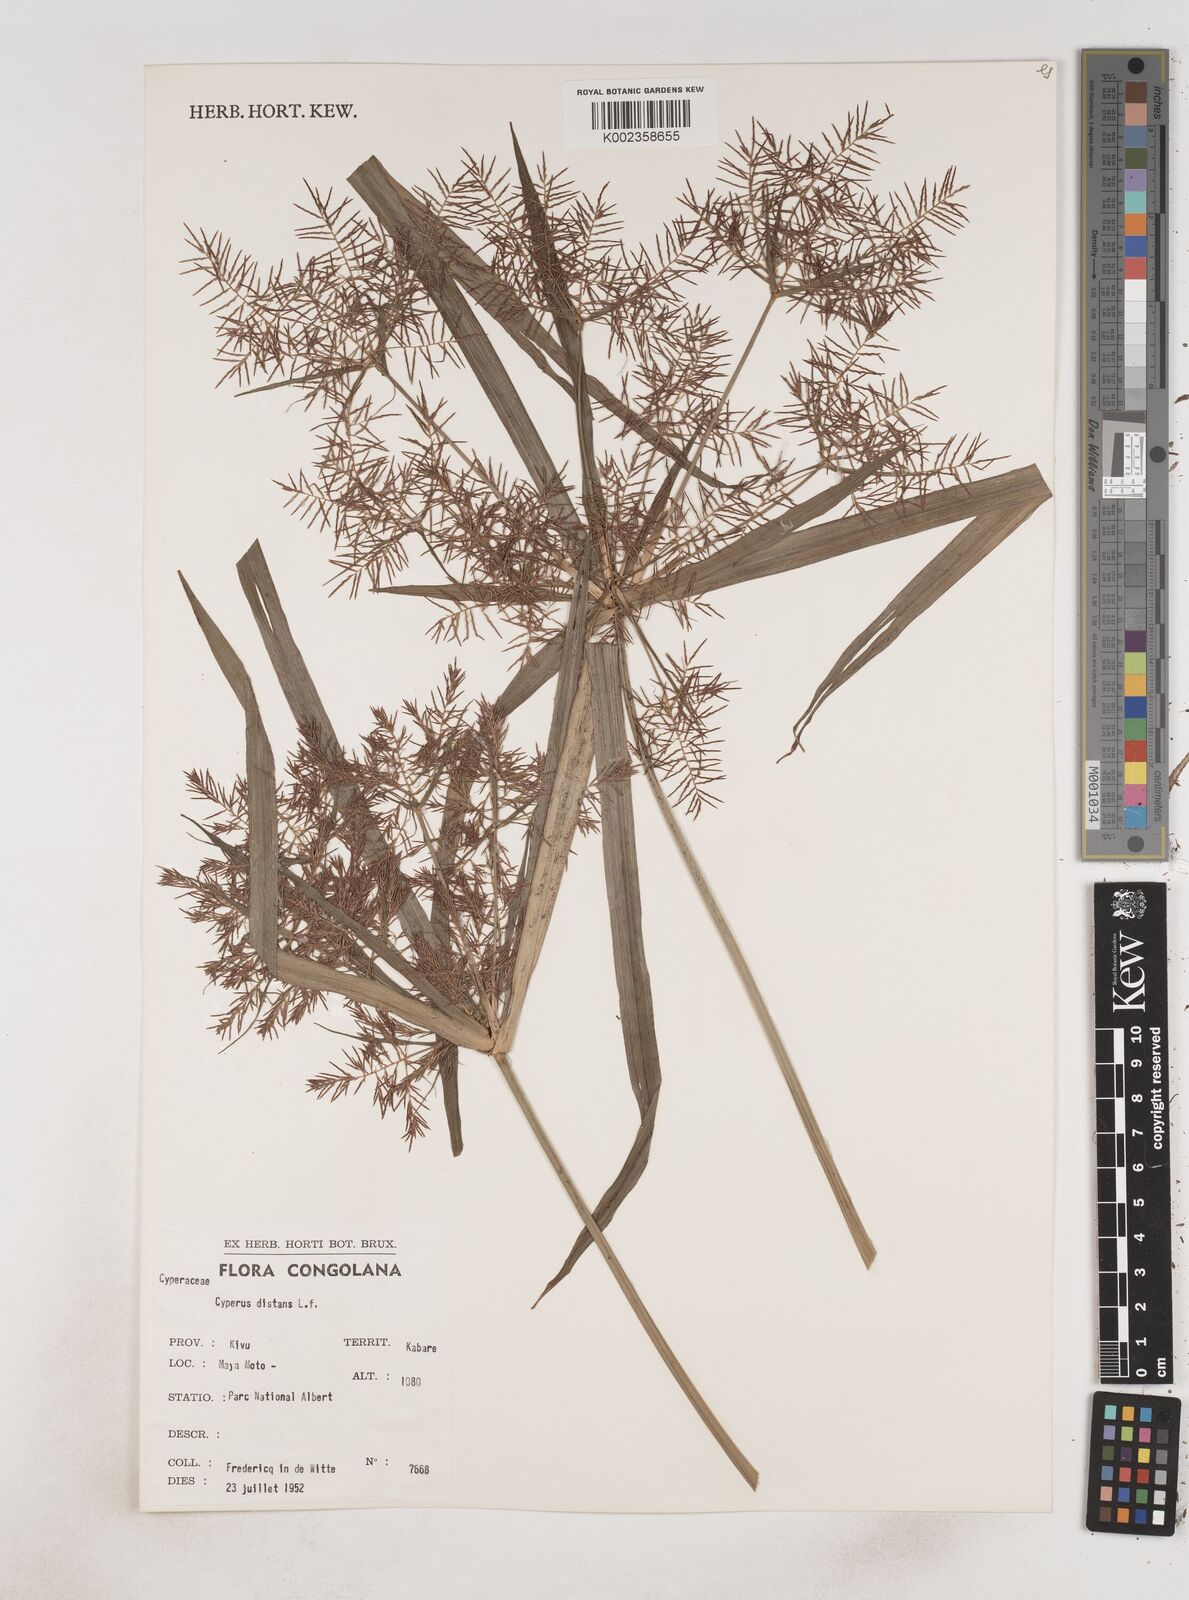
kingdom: Plantae
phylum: Tracheophyta
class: Liliopsida
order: Poales
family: Cyperaceae
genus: Cyperus
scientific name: Cyperus distans
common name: Slender cyperus
